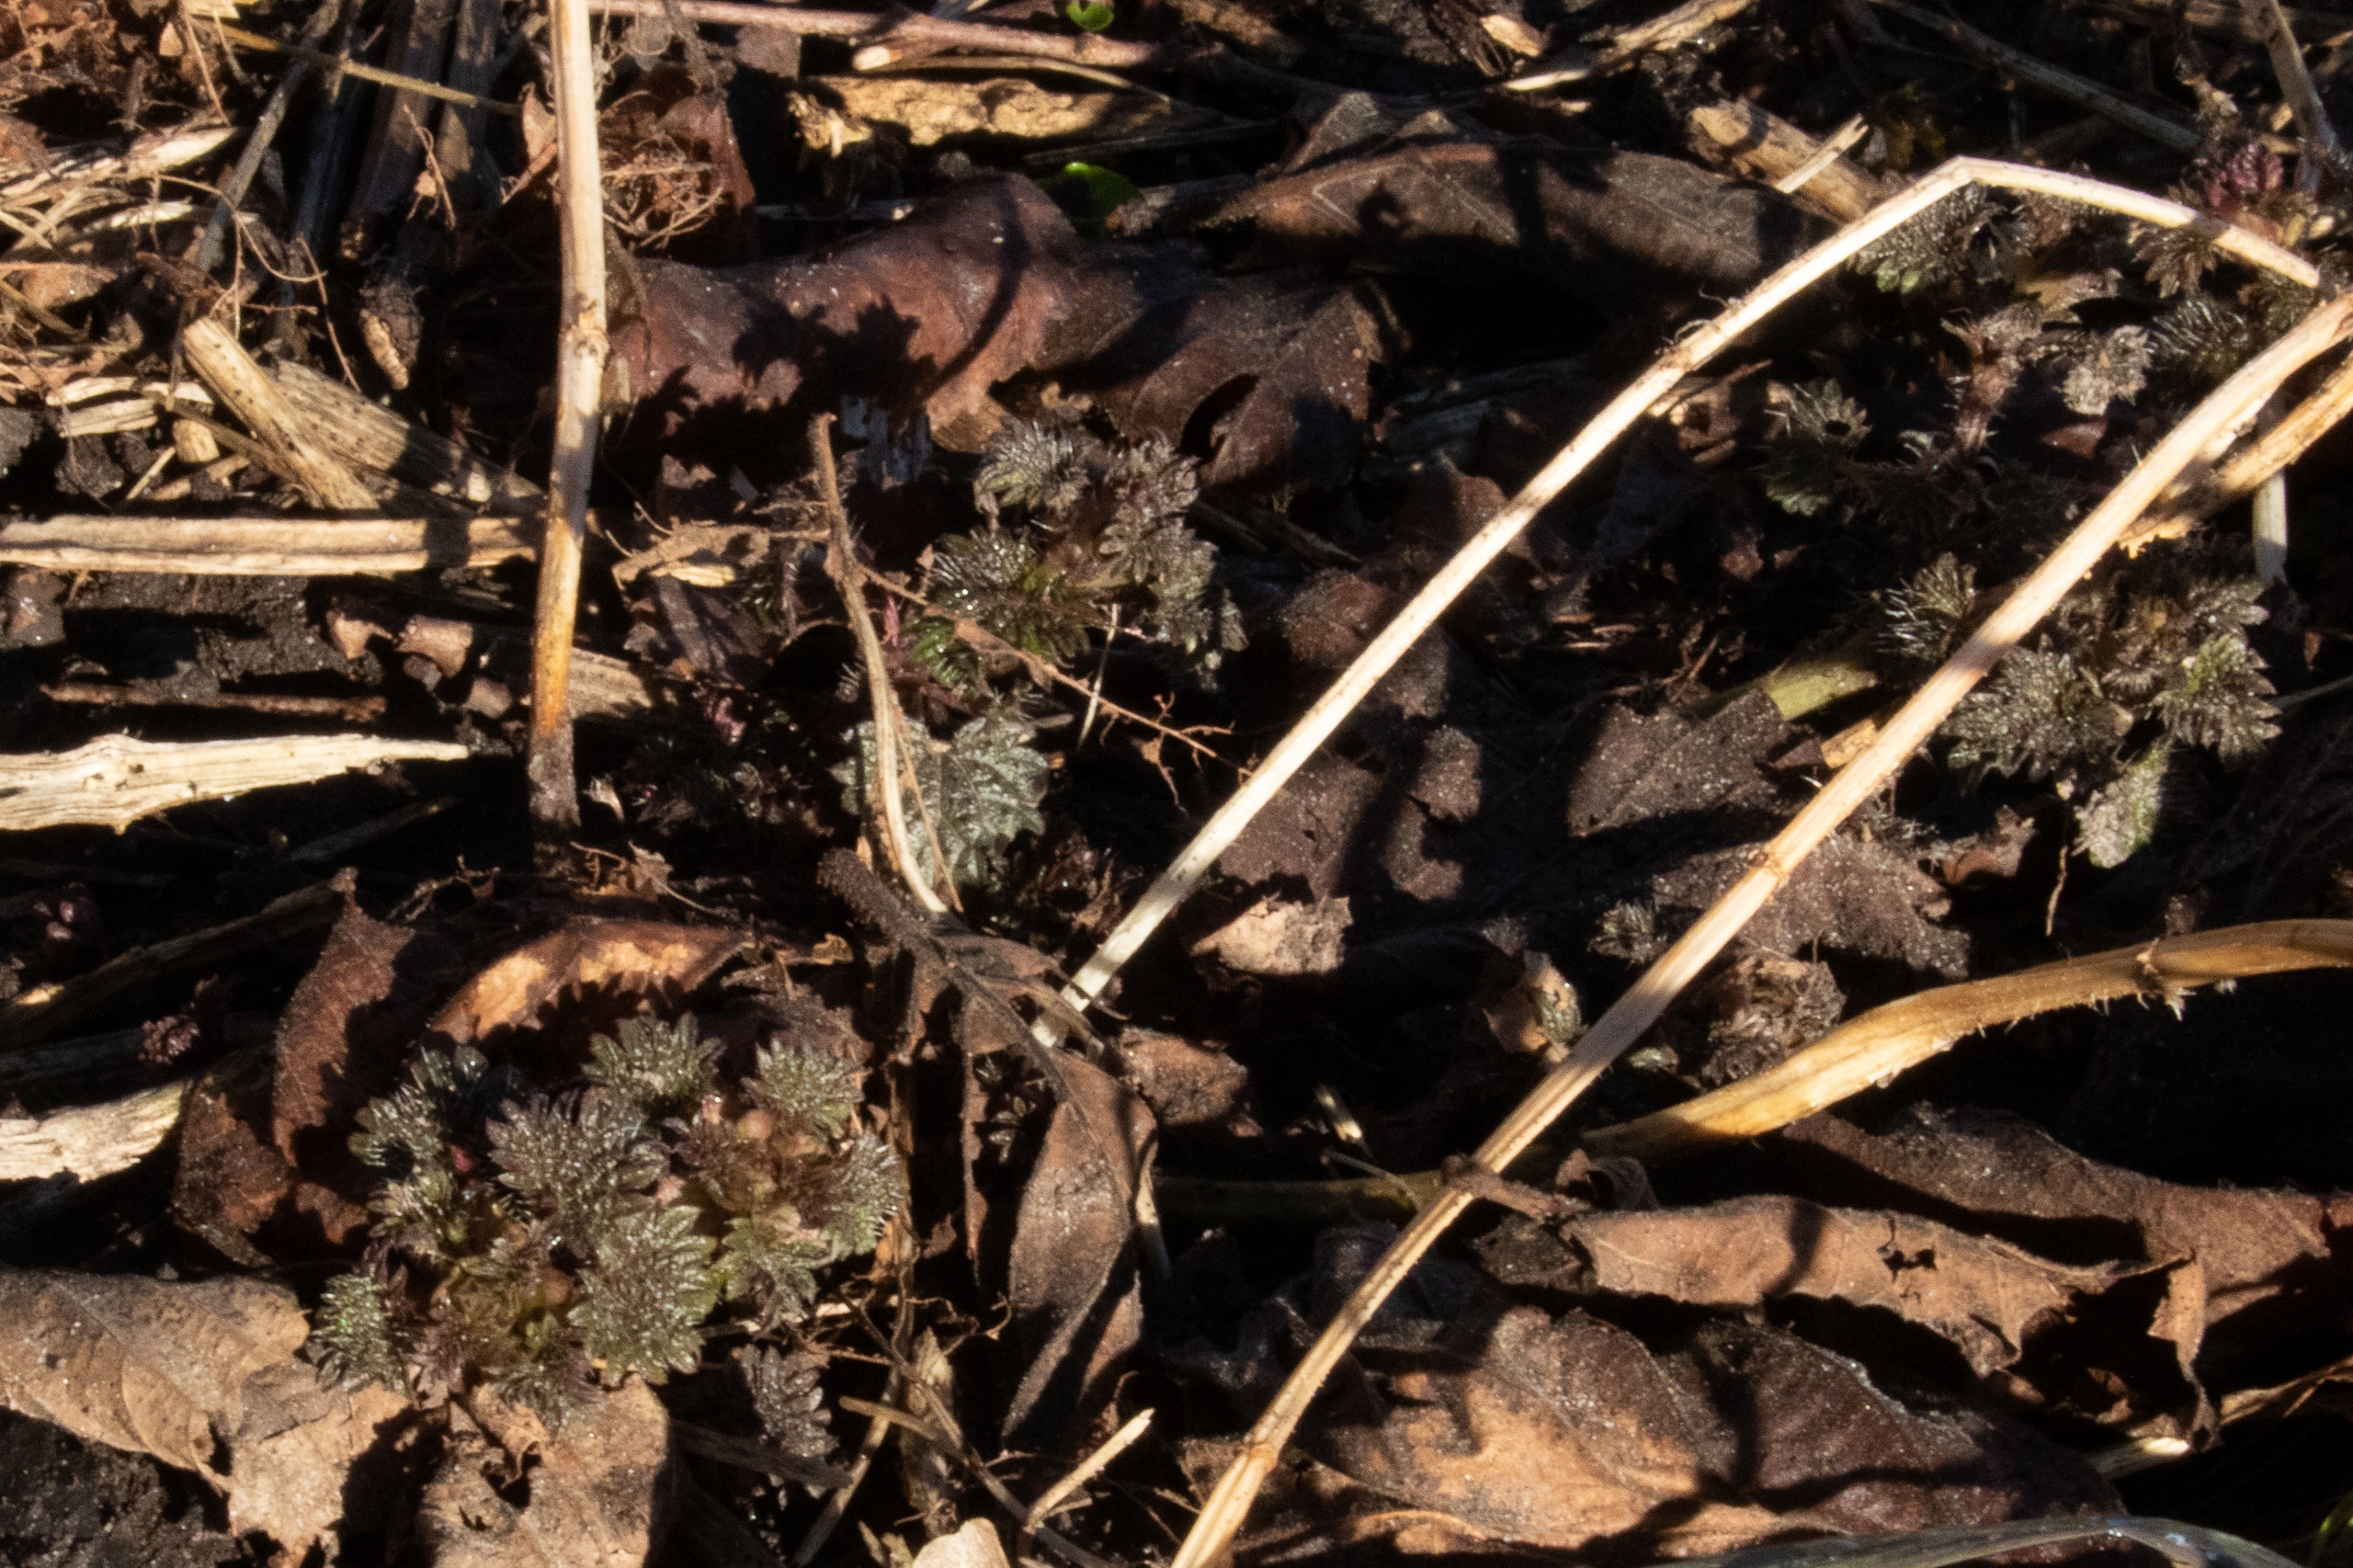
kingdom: Plantae
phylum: Tracheophyta
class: Magnoliopsida
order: Rosales
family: Urticaceae
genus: Urtica
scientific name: Urtica dioica
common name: Stor nælde
